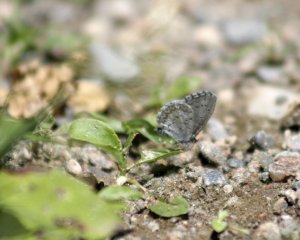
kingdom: Animalia
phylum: Arthropoda
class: Insecta
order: Lepidoptera
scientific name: Lepidoptera
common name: Butterflies
